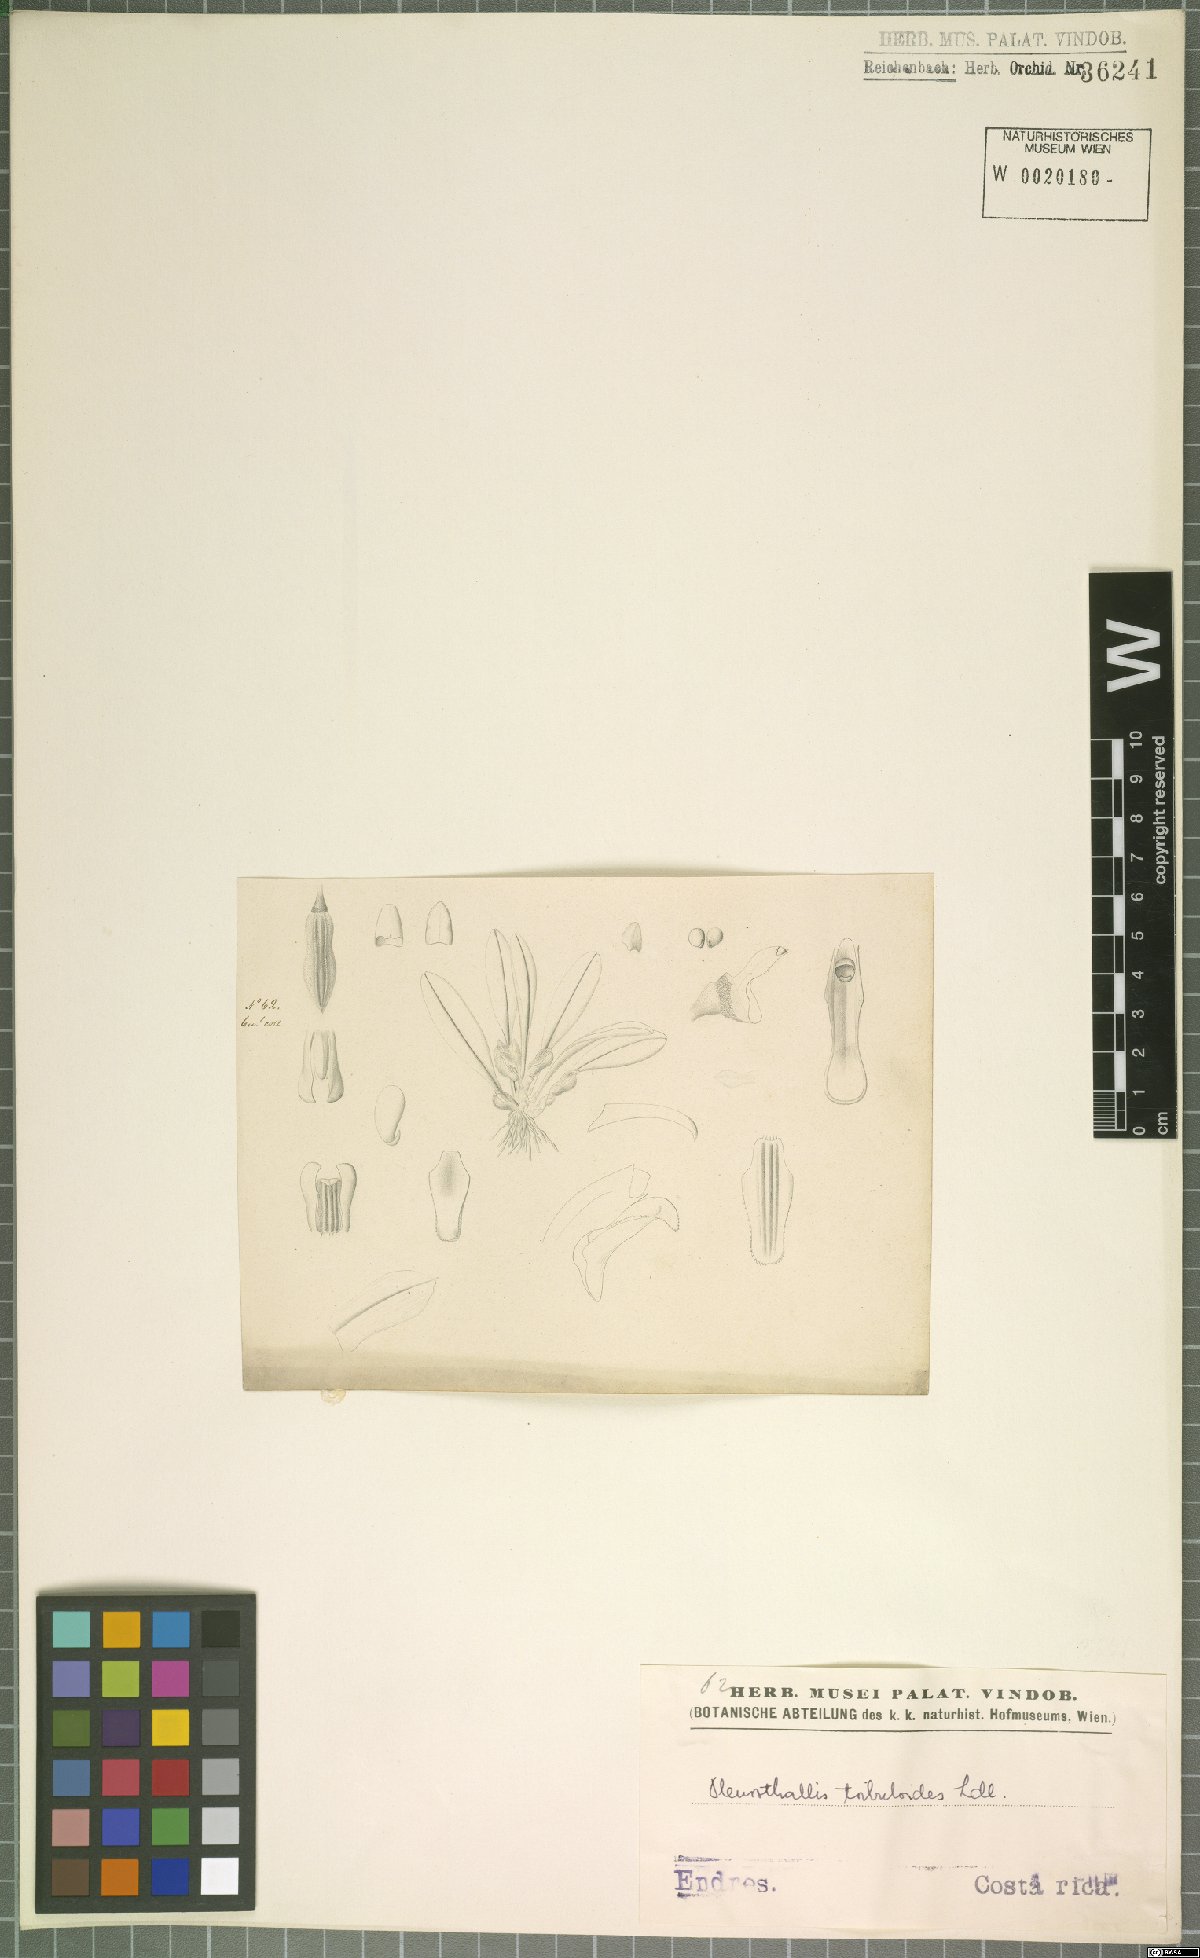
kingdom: Plantae
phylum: Tracheophyta
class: Liliopsida
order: Asparagales
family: Orchidaceae
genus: Specklinia
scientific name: Specklinia tribuloides
